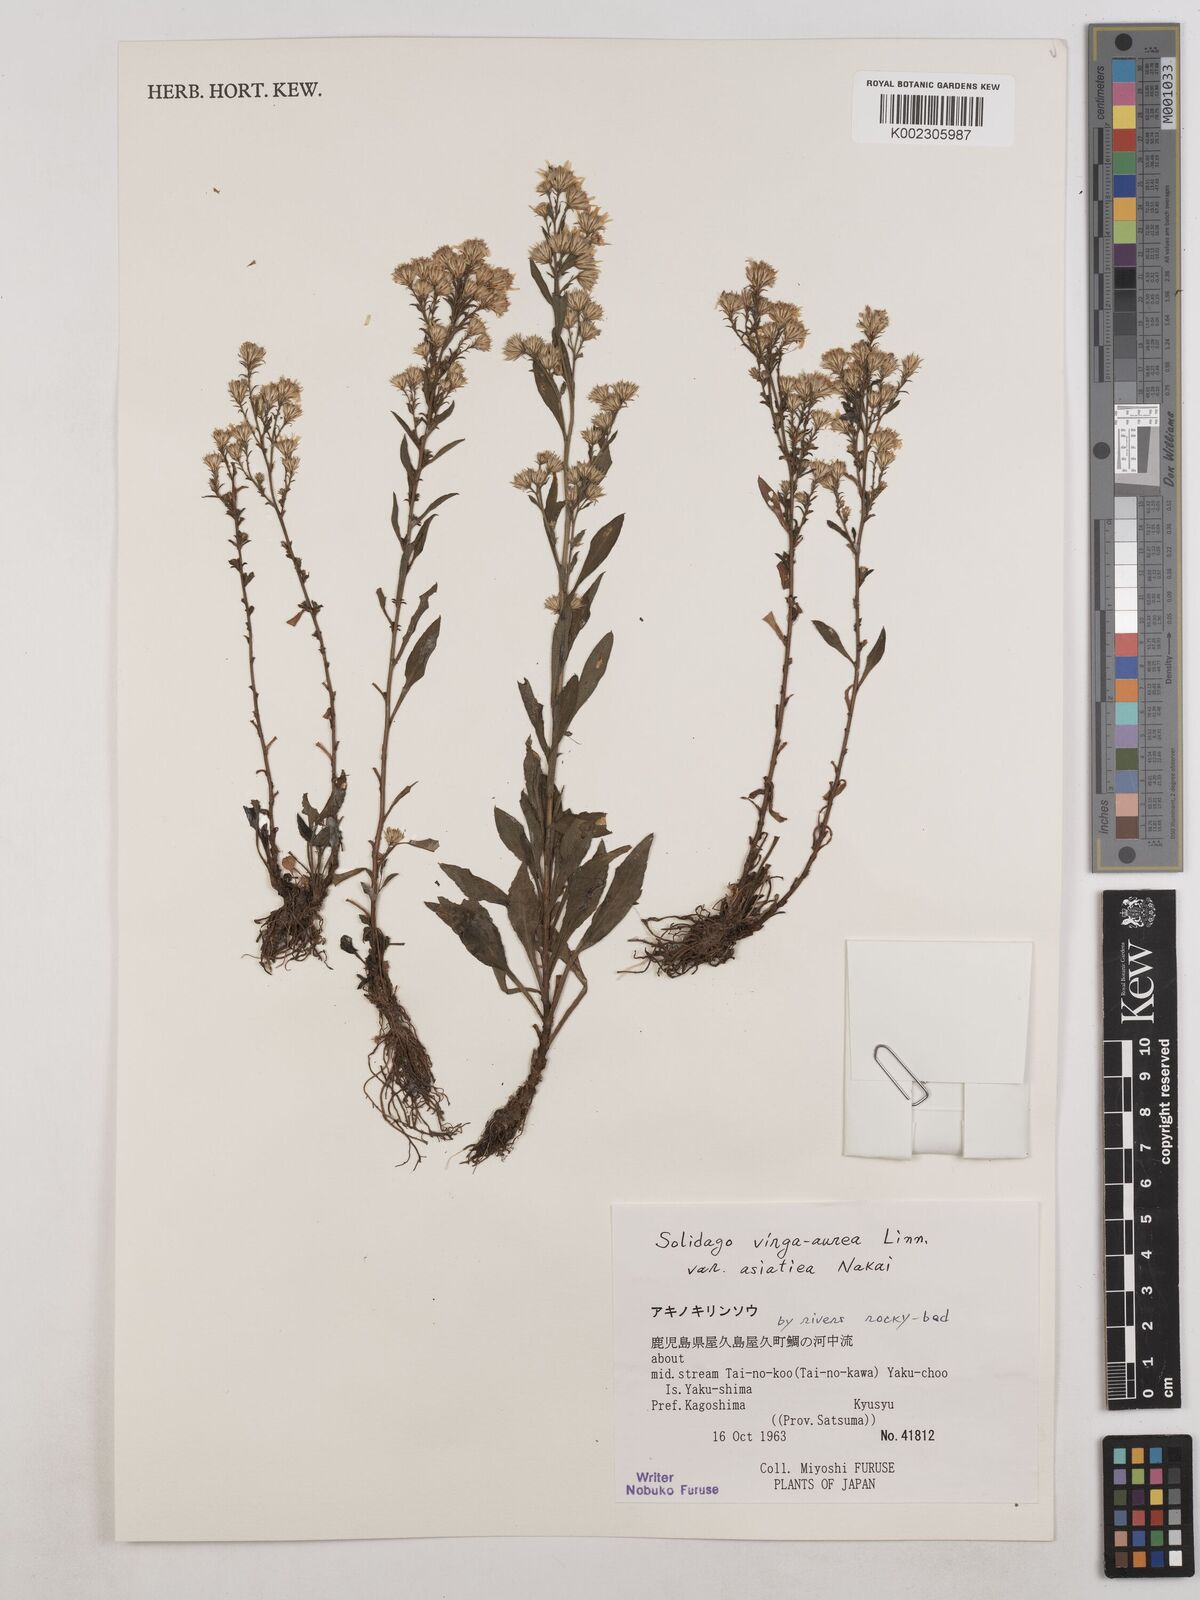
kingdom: Plantae
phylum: Tracheophyta
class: Magnoliopsida
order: Asterales
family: Asteraceae
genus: Solidago
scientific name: Solidago virgaurea
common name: Goldenrod
